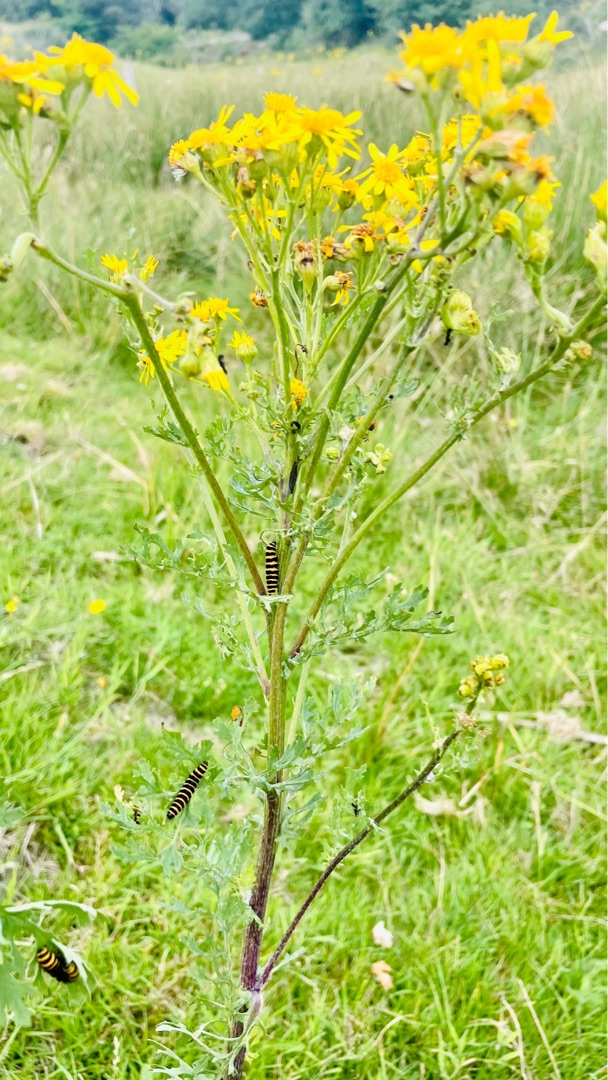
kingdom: Animalia
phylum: Arthropoda
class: Insecta
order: Lepidoptera
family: Erebidae
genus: Tyria
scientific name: Tyria jacobaeae
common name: Blodplet
